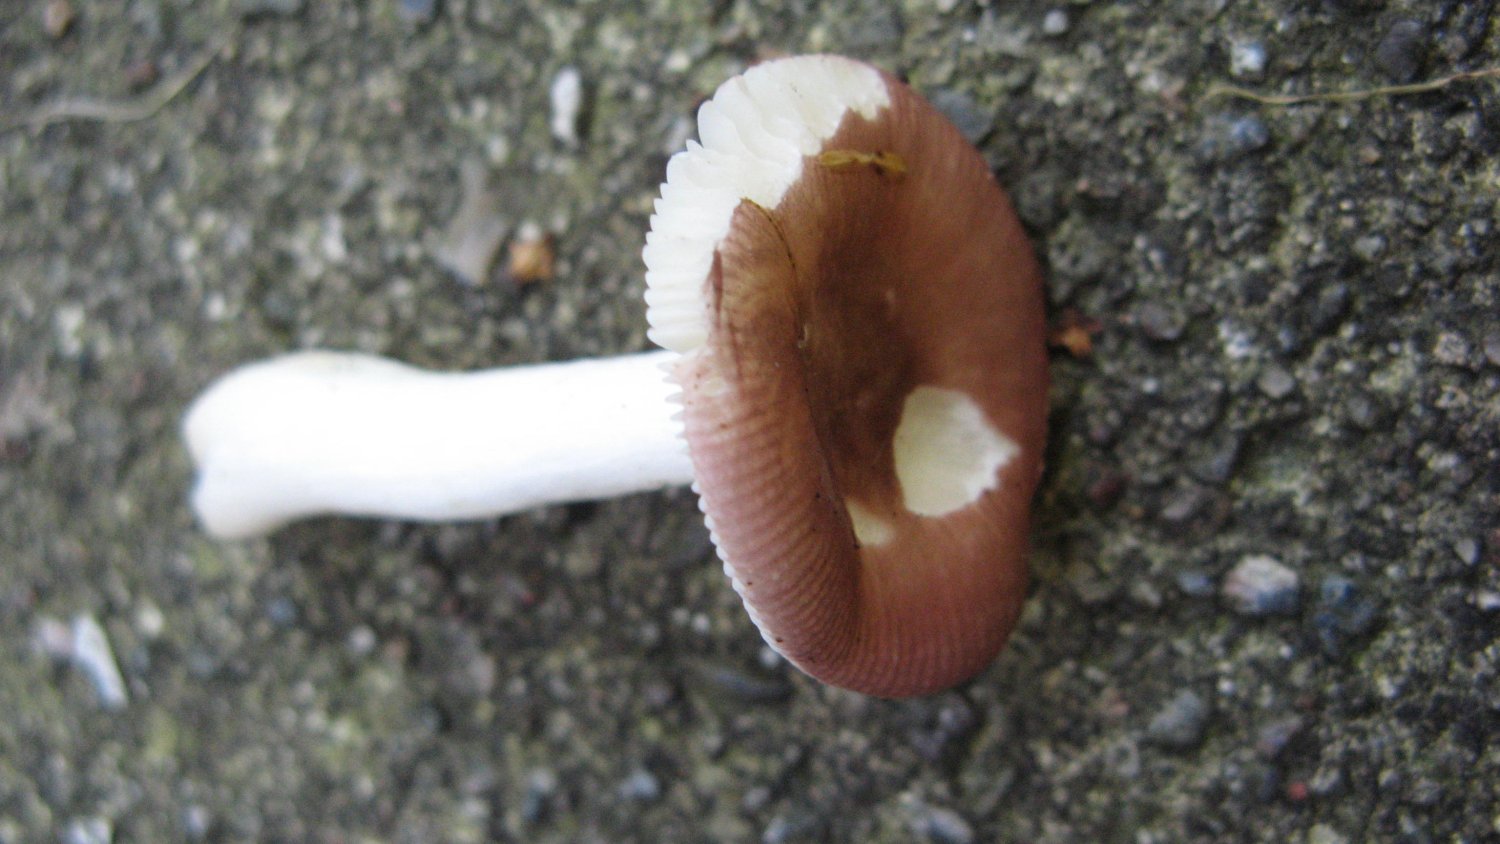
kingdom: Fungi
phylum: Basidiomycota
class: Agaricomycetes
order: Russulales
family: Russulaceae
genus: Russula
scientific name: Russula
